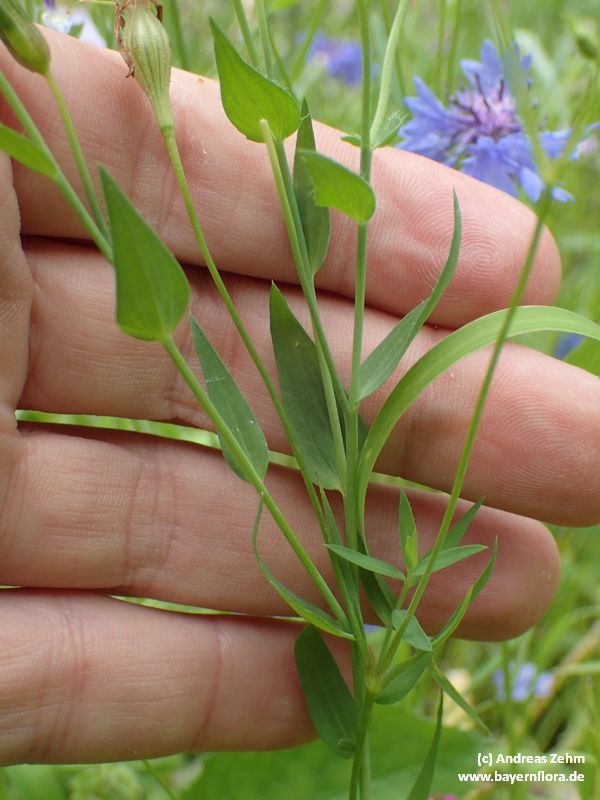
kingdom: Plantae
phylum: Tracheophyta
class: Magnoliopsida
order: Malpighiales
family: Linaceae
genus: Linum
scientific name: Linum grandiflorum
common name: Crimson flax
